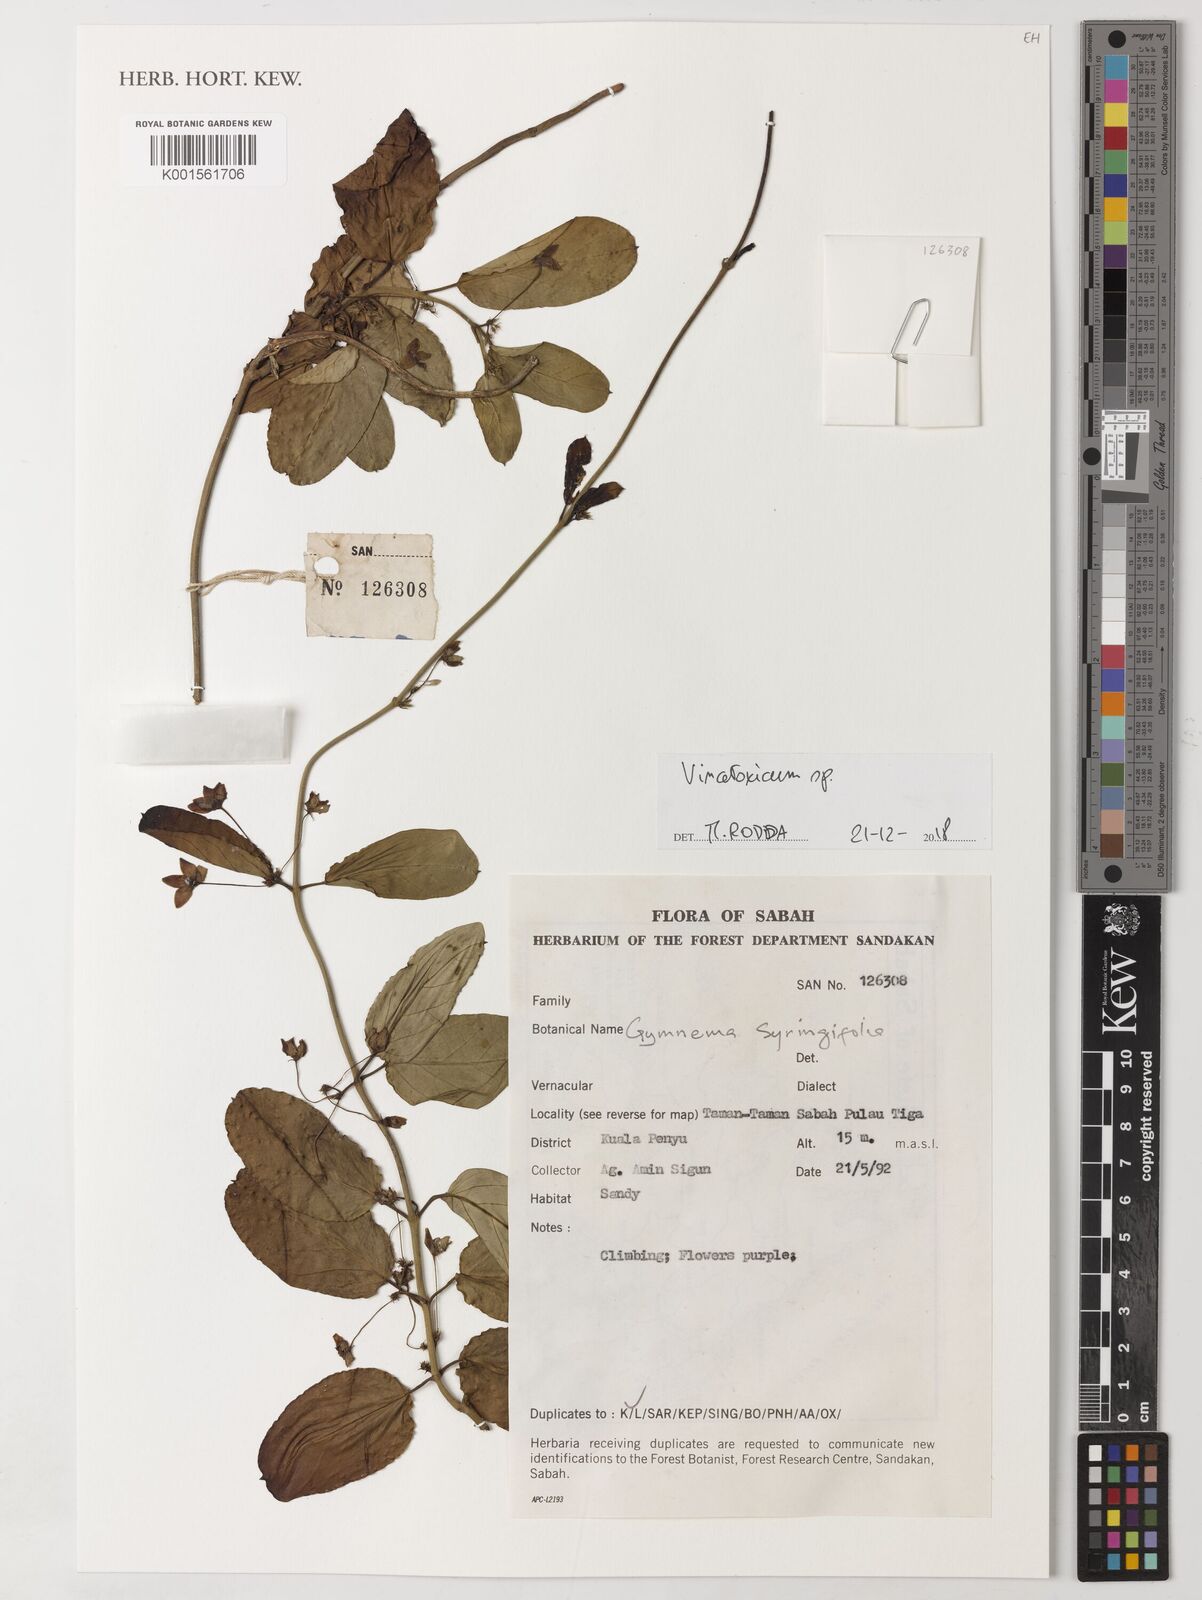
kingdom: Plantae
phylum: Tracheophyta
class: Magnoliopsida
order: Gentianales
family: Apocynaceae
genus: Vincetoxicum
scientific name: Vincetoxicum
